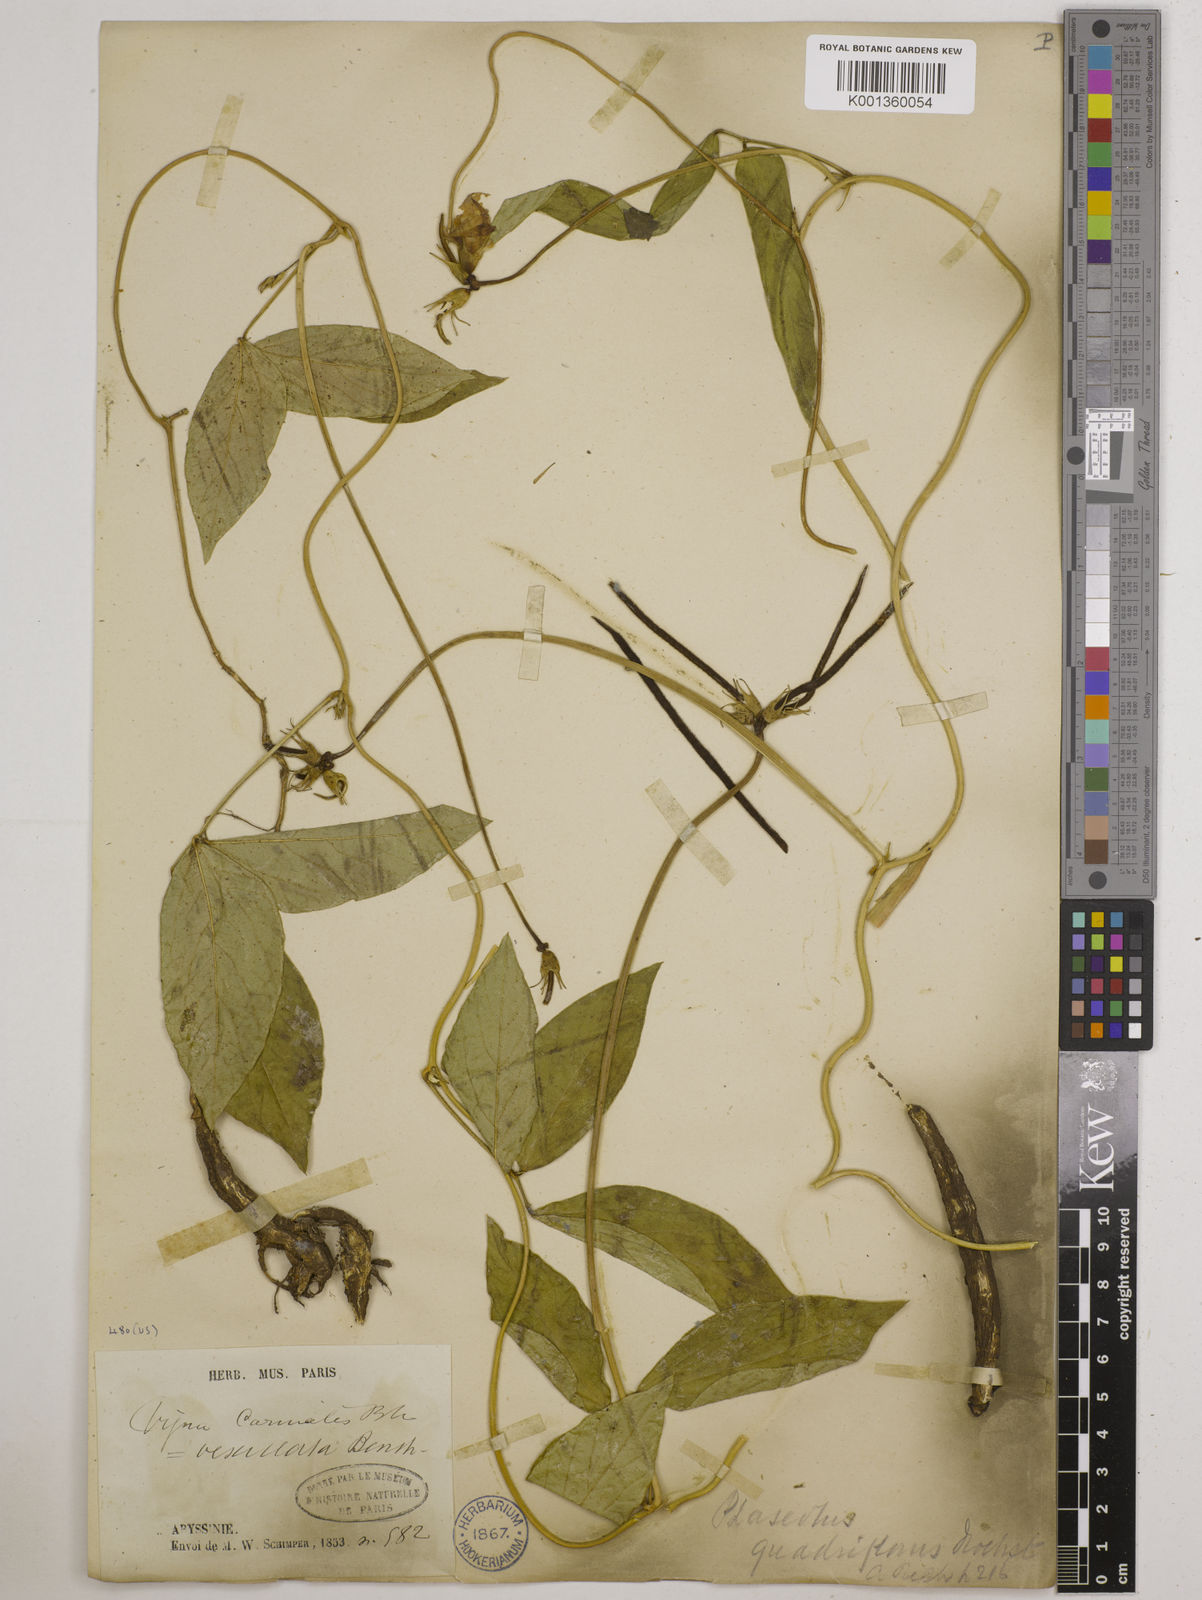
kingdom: Plantae
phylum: Tracheophyta
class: Magnoliopsida
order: Fabales
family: Fabaceae
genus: Vigna
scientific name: Vigna vexillata
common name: Zombi pea
